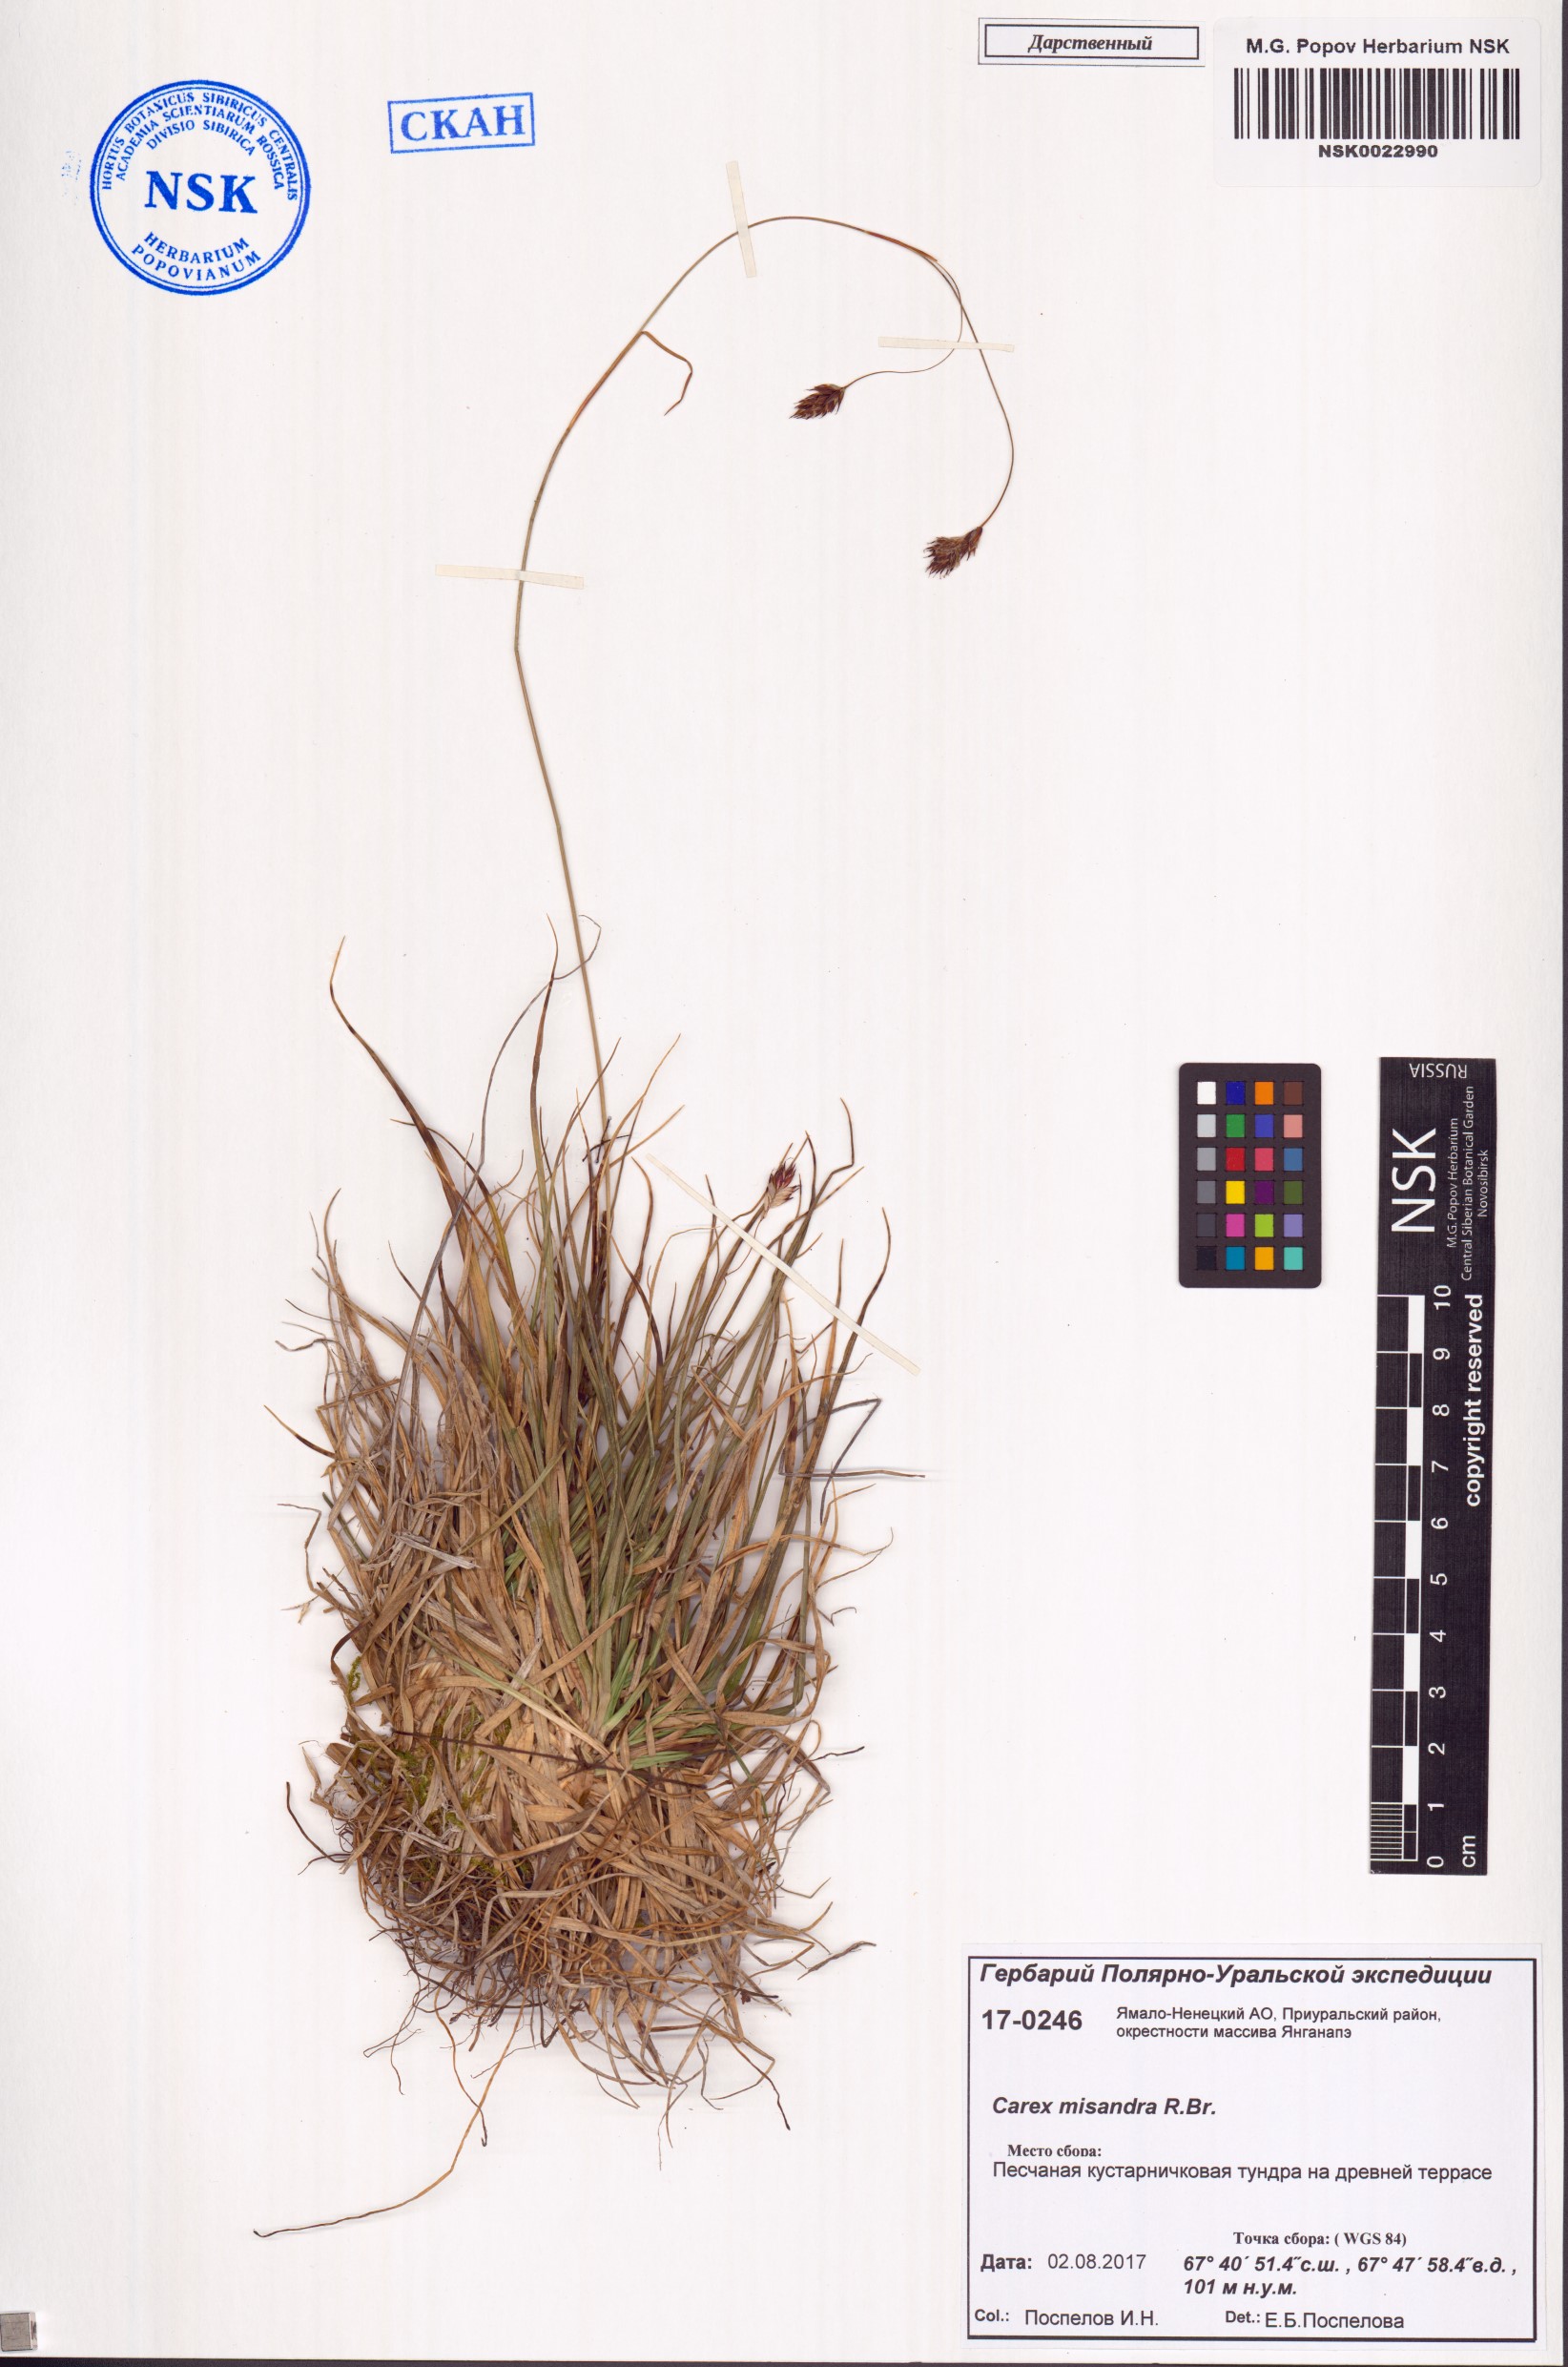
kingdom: Plantae
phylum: Tracheophyta
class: Liliopsida
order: Poales
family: Cyperaceae
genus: Carex
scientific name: Carex fuliginosa
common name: Few-flowered sedge
